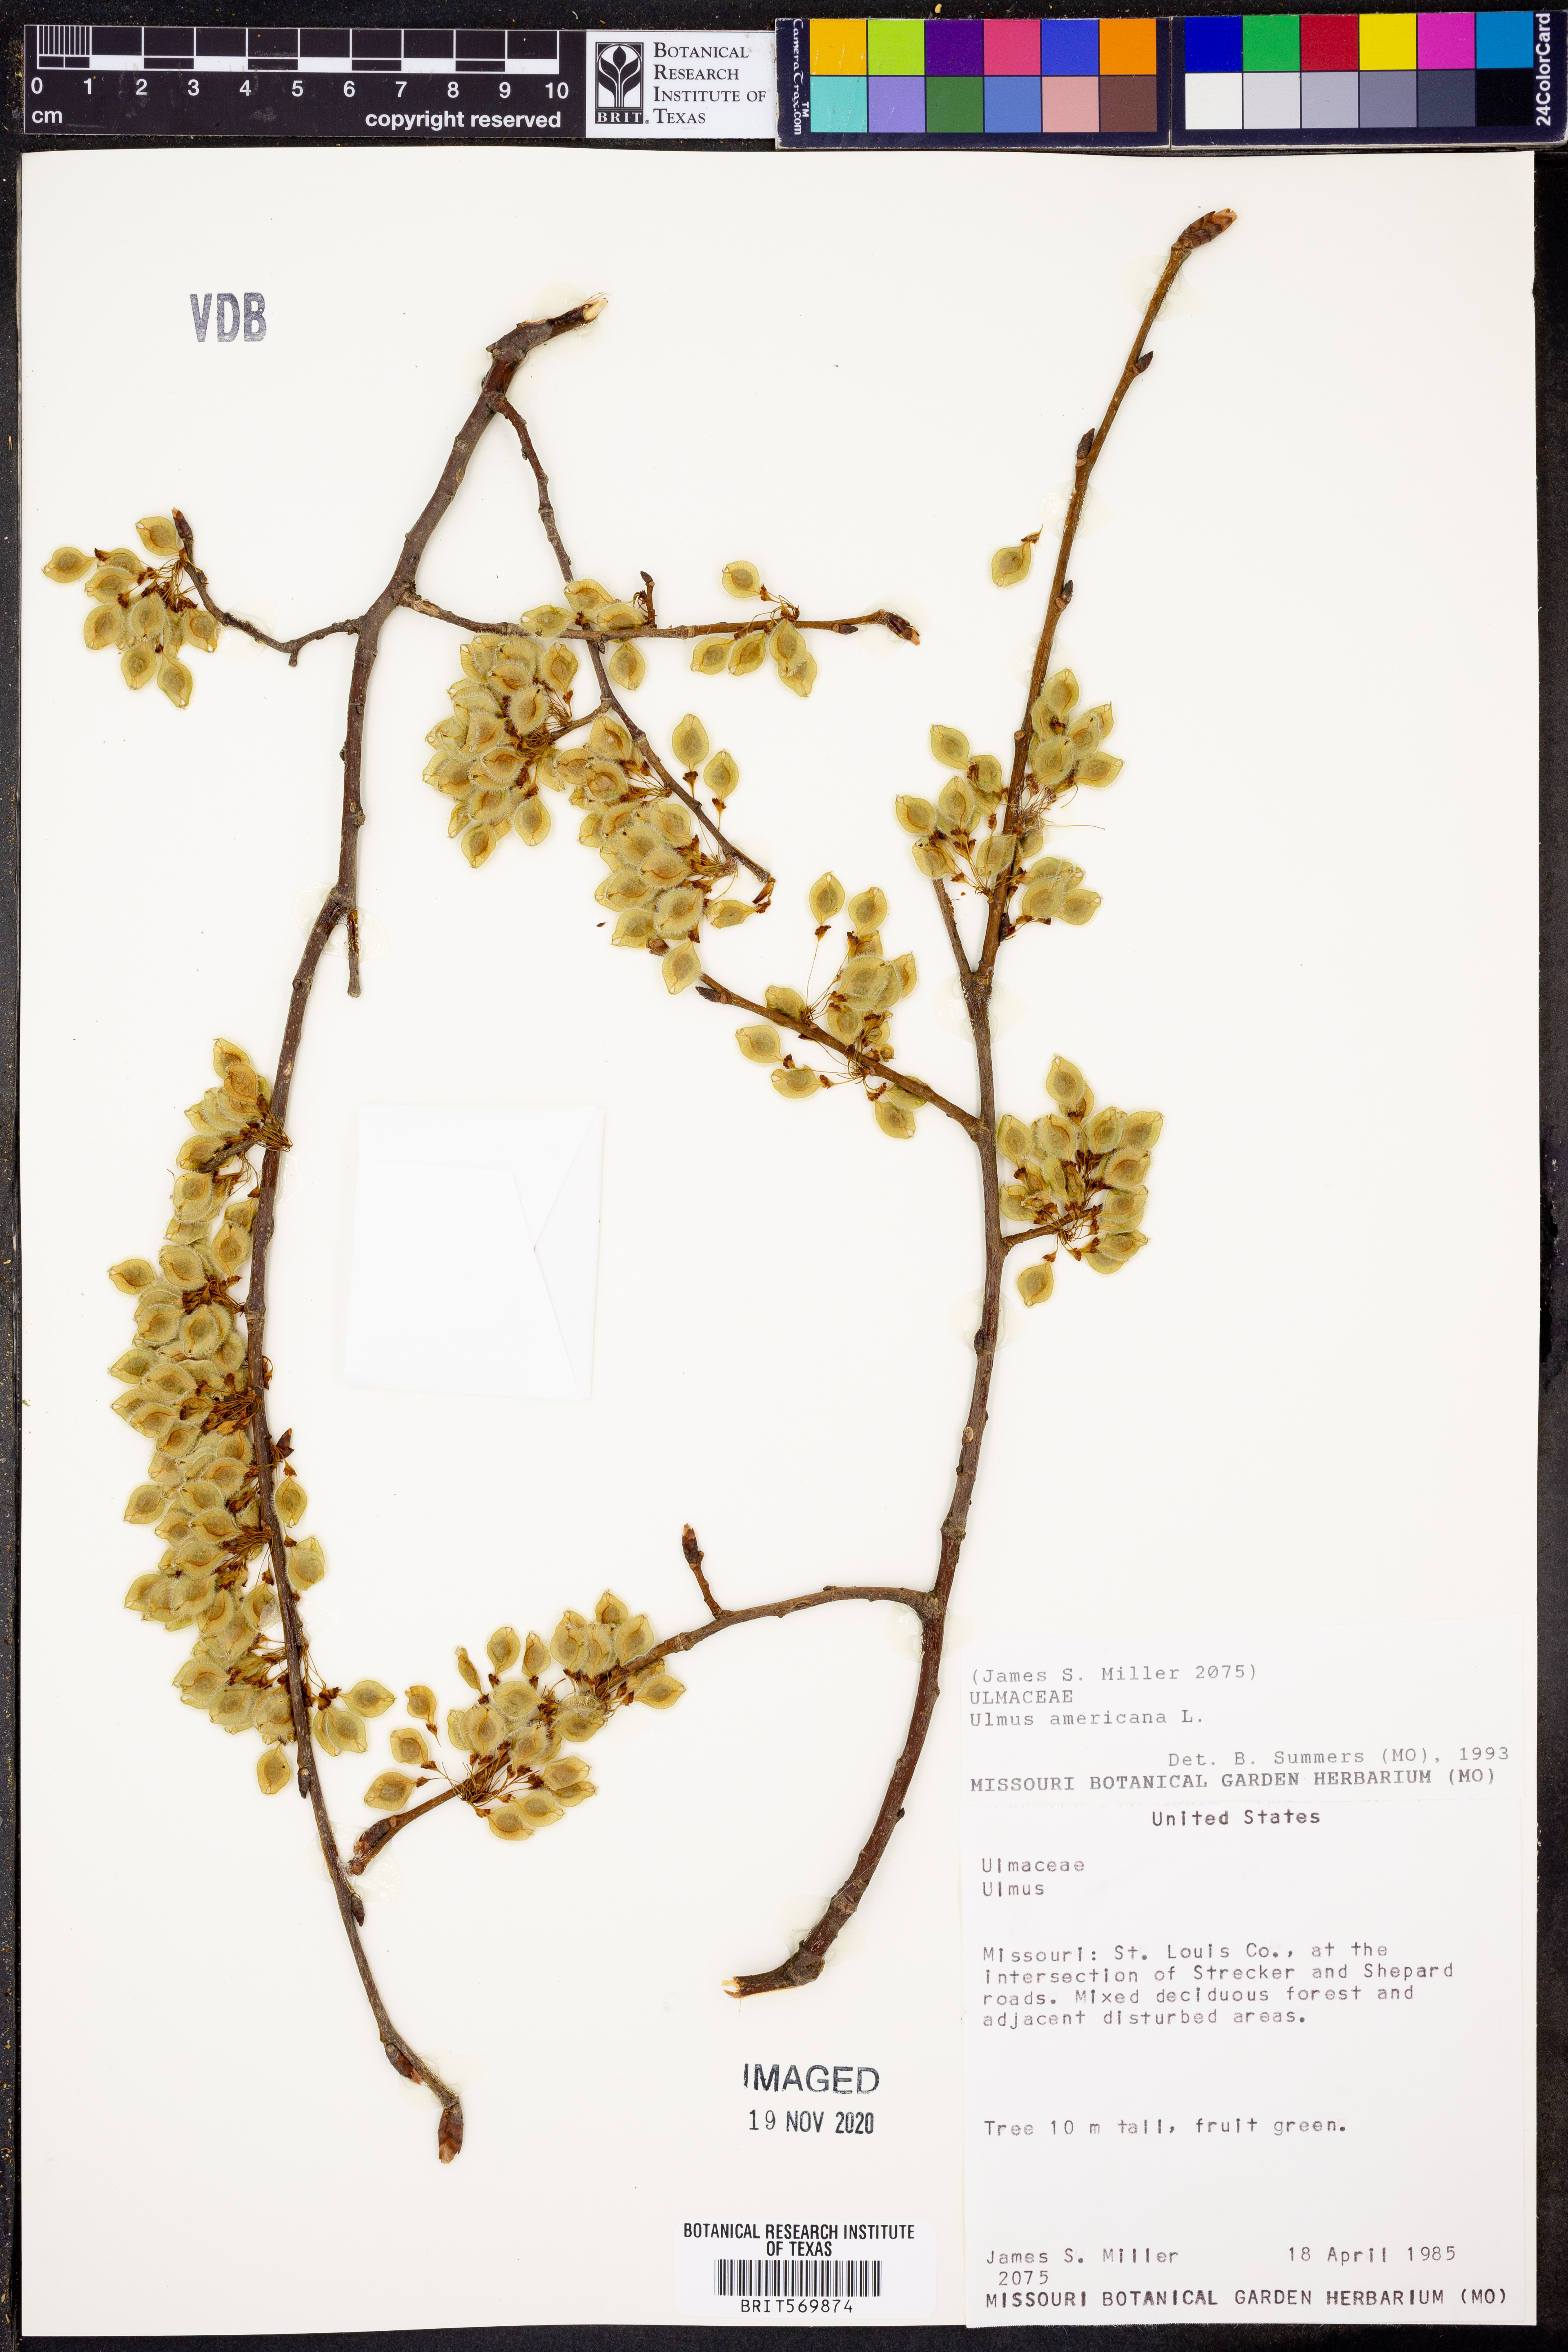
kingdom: Plantae
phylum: Tracheophyta
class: Magnoliopsida
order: Rosales
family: Ulmaceae
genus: Ulmus
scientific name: Ulmus americana
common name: American elm
